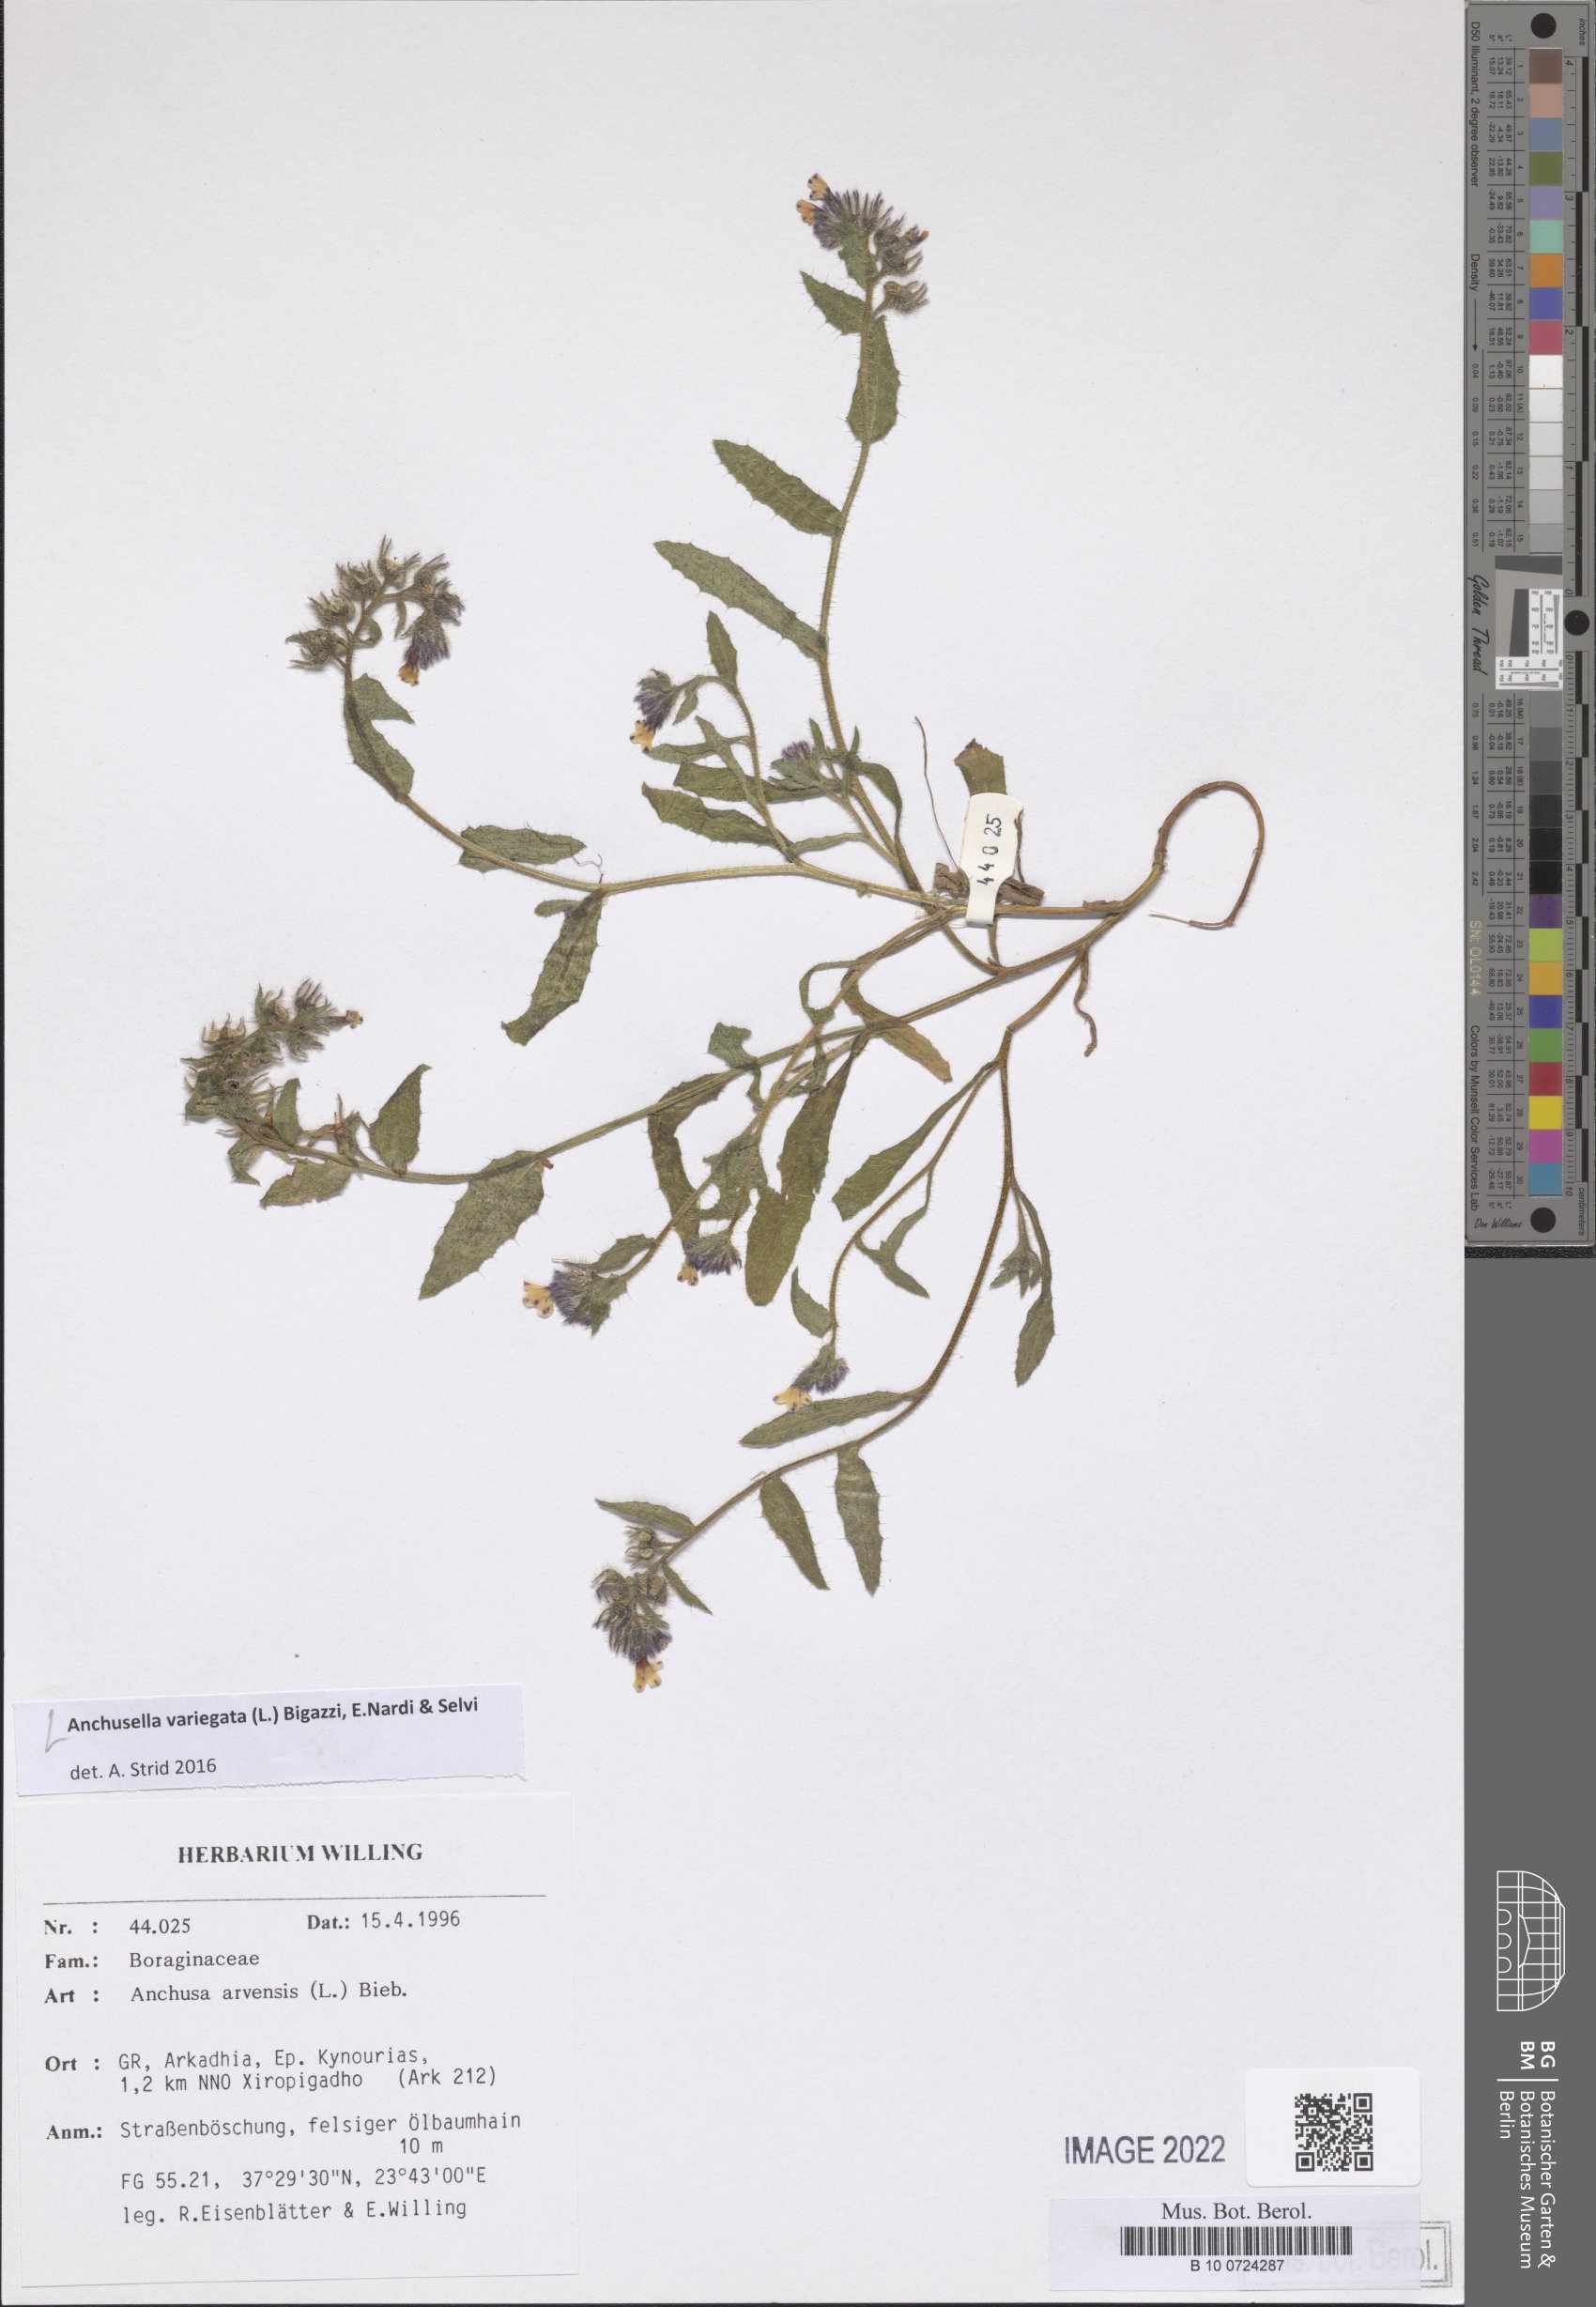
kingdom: Plantae
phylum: Tracheophyta
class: Magnoliopsida
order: Boraginales
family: Boraginaceae
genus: Anchusella
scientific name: Anchusella variegata
